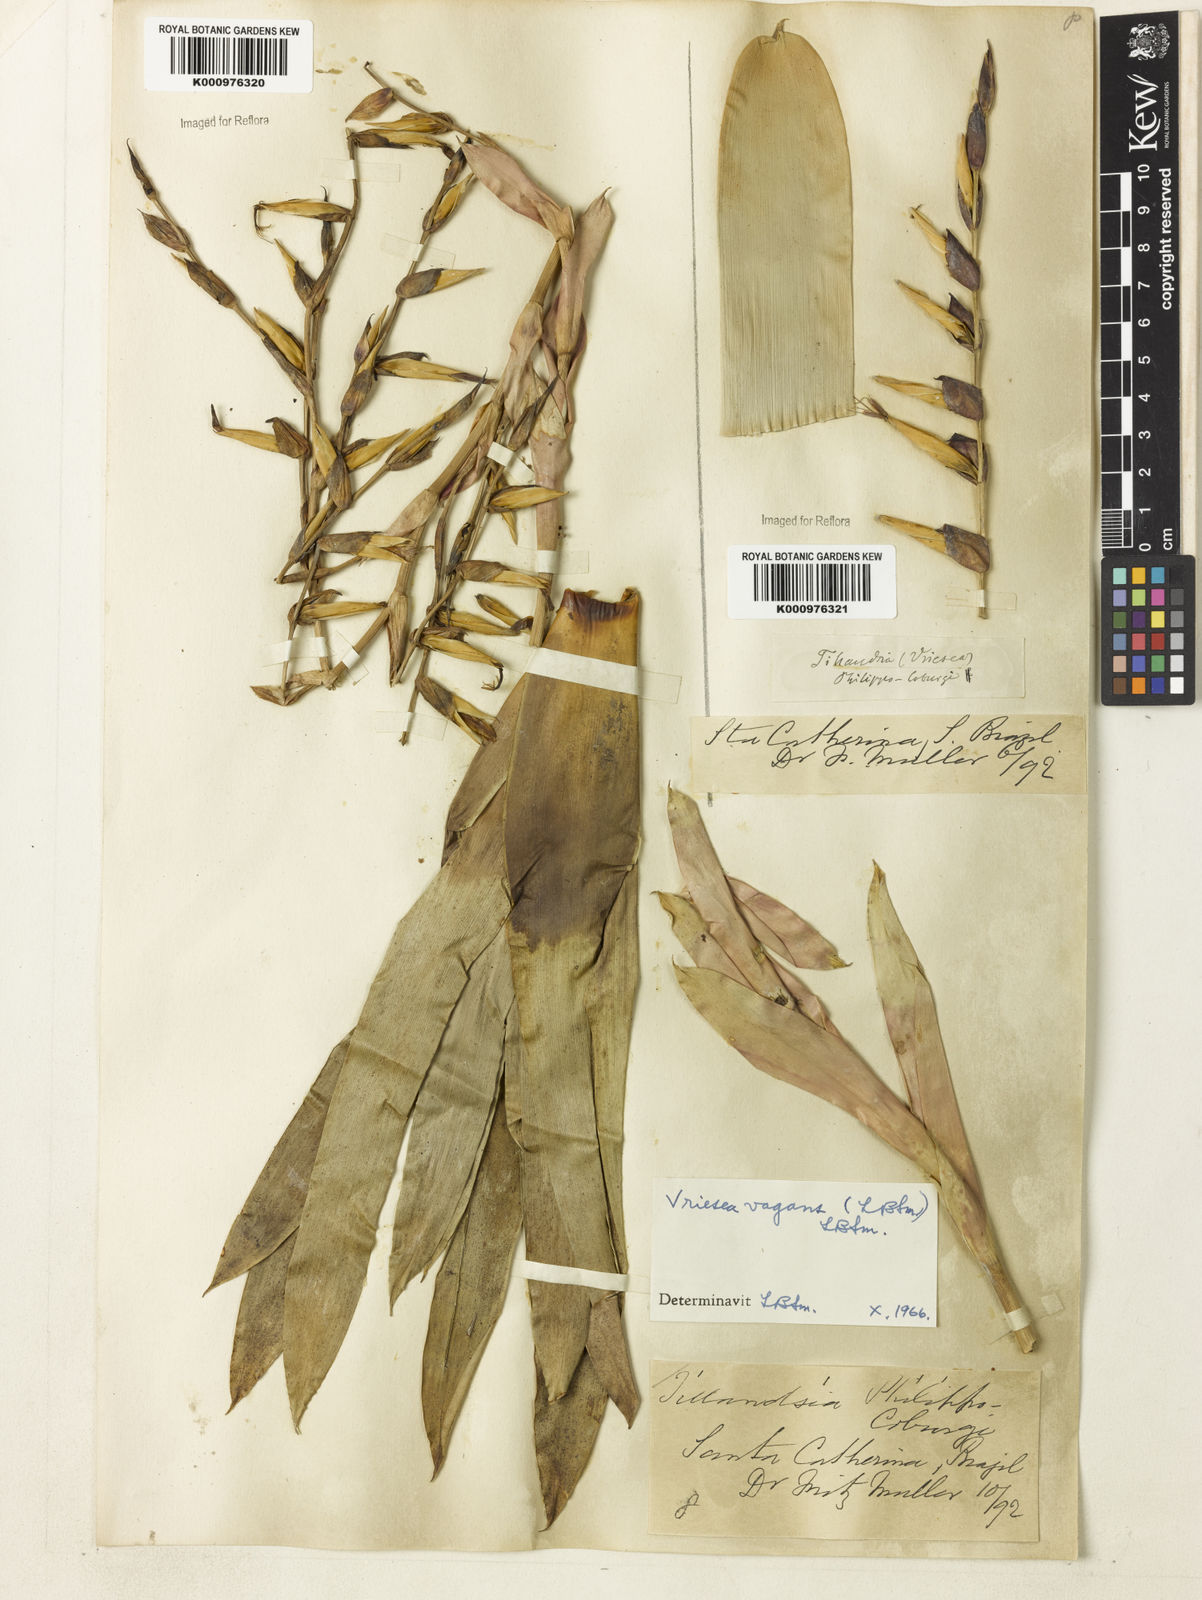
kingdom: Plantae
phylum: Tracheophyta
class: Liliopsida
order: Poales
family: Bromeliaceae
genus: Vriesea
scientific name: Vriesea vagans
